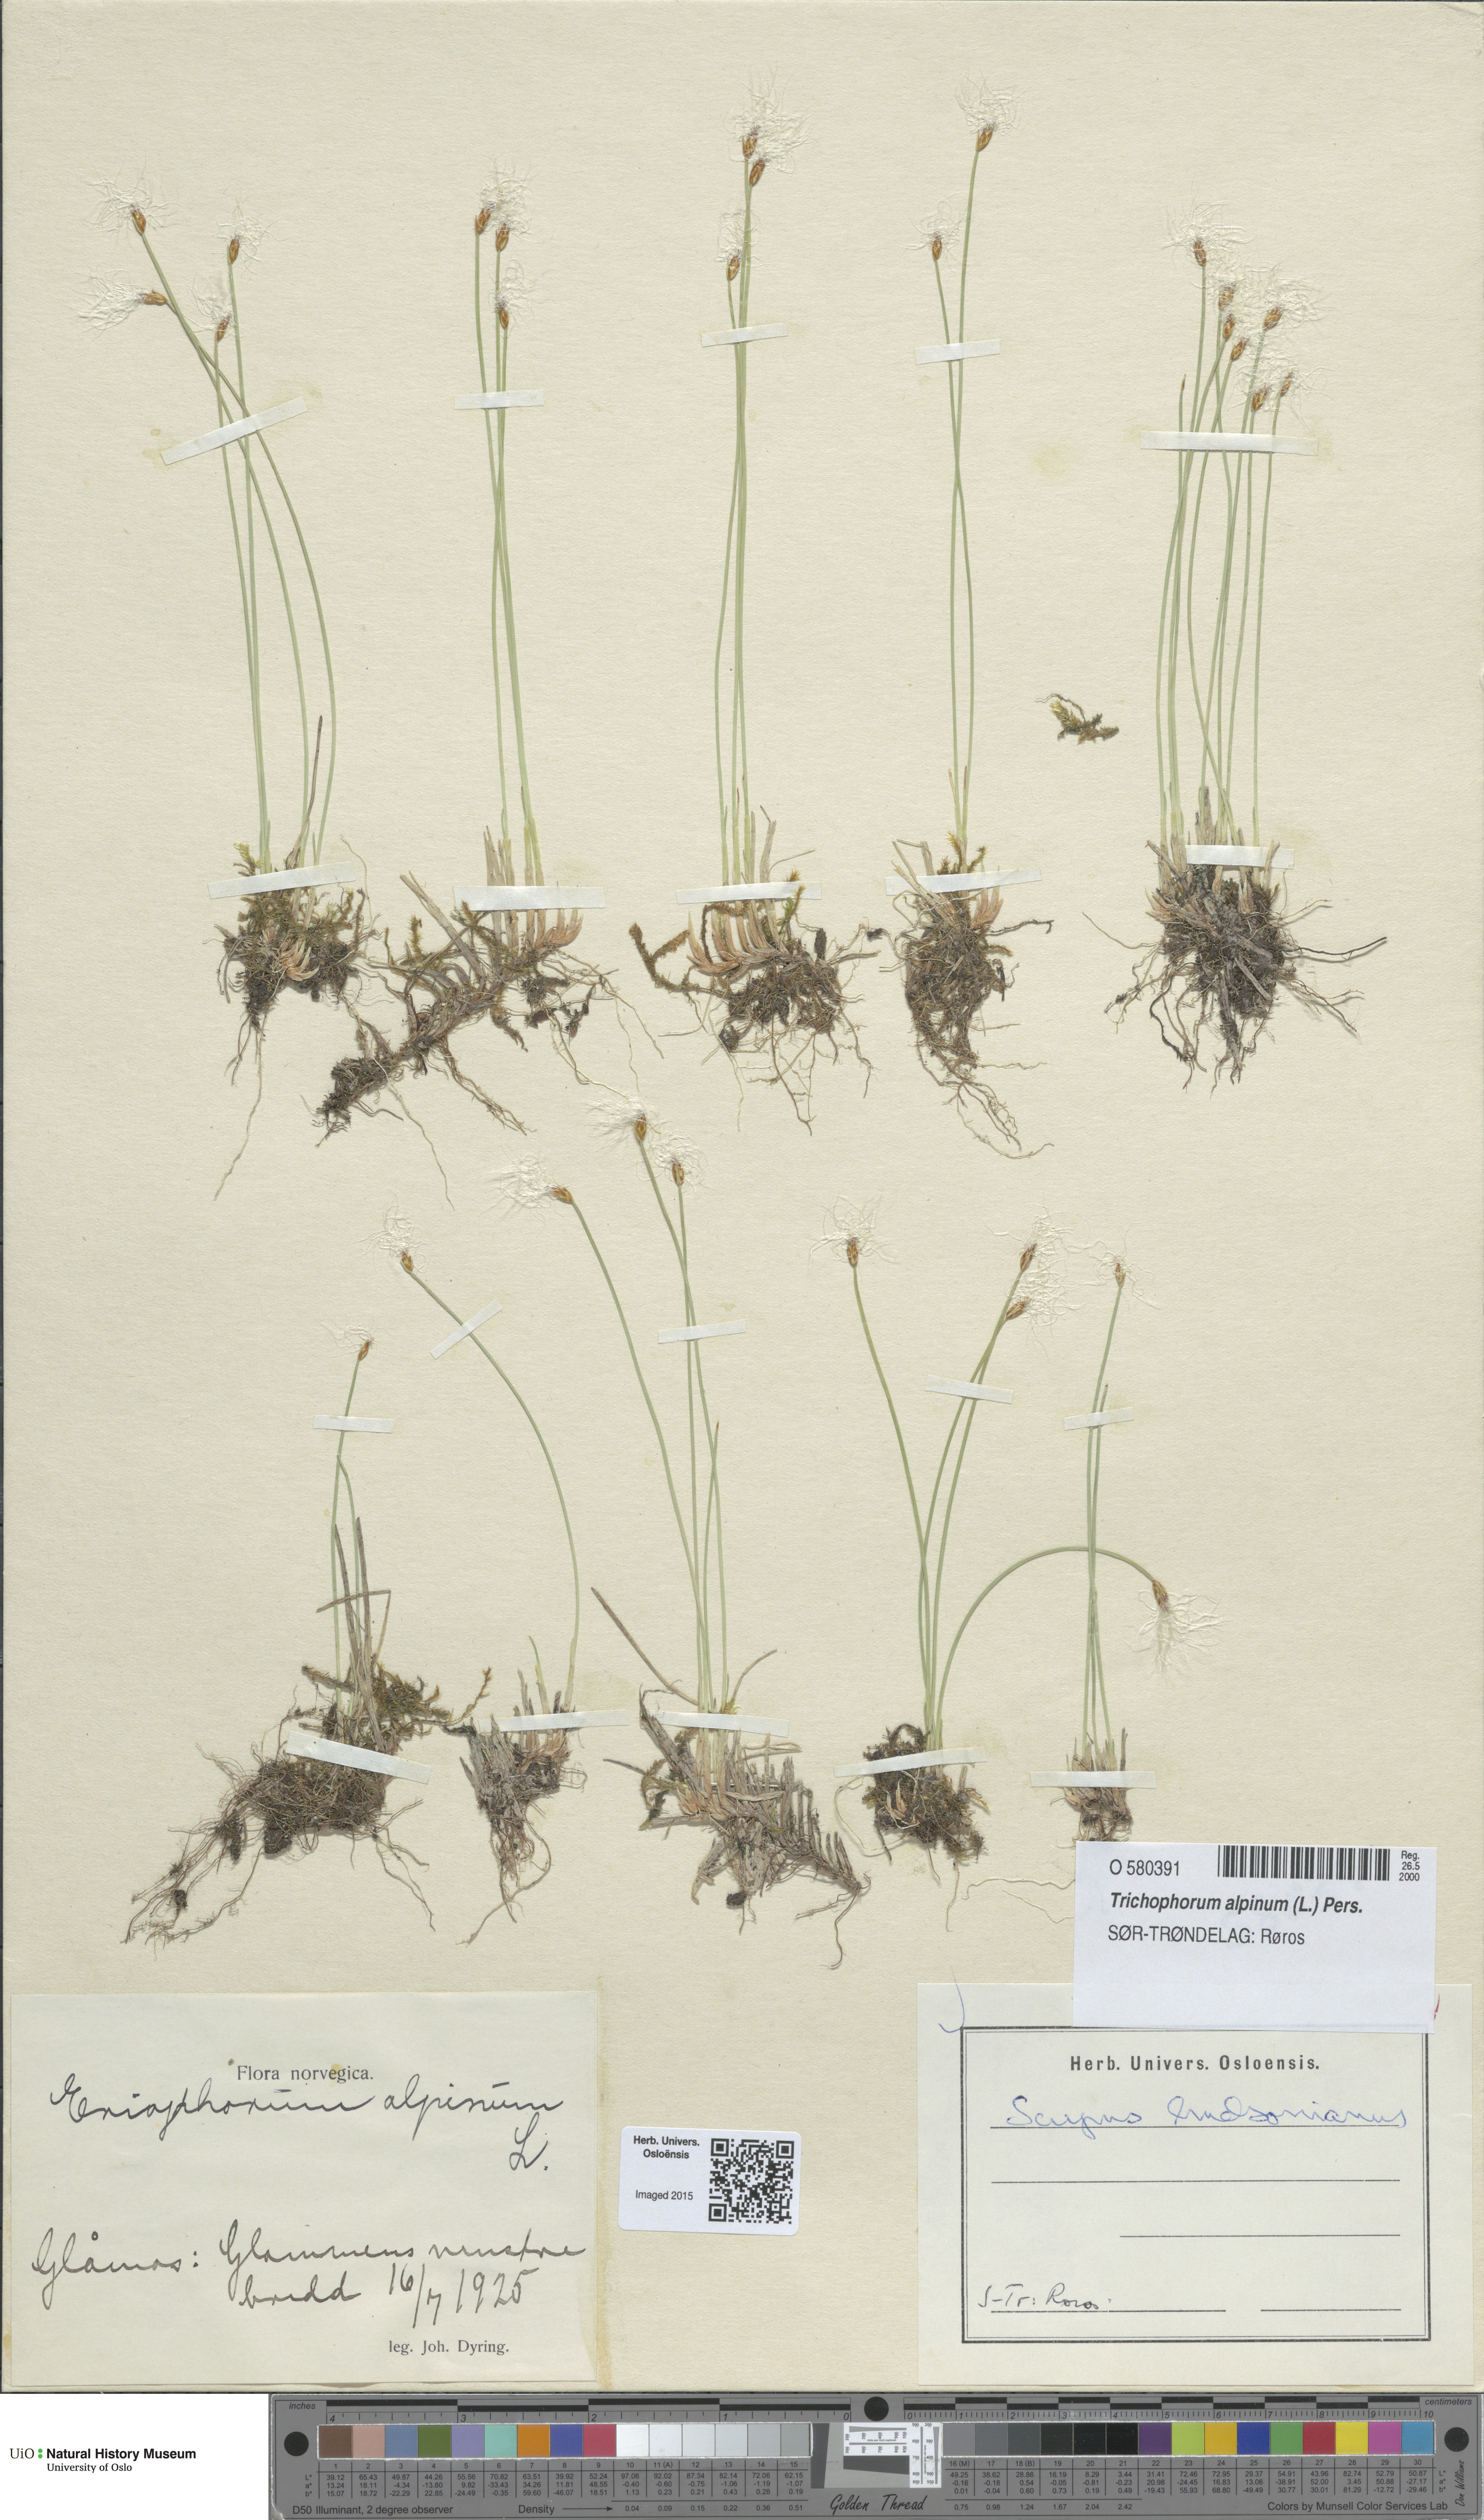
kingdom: Plantae
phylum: Tracheophyta
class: Liliopsida
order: Poales
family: Cyperaceae
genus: Trichophorum
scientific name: Trichophorum alpinum
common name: Alpine bulrush
